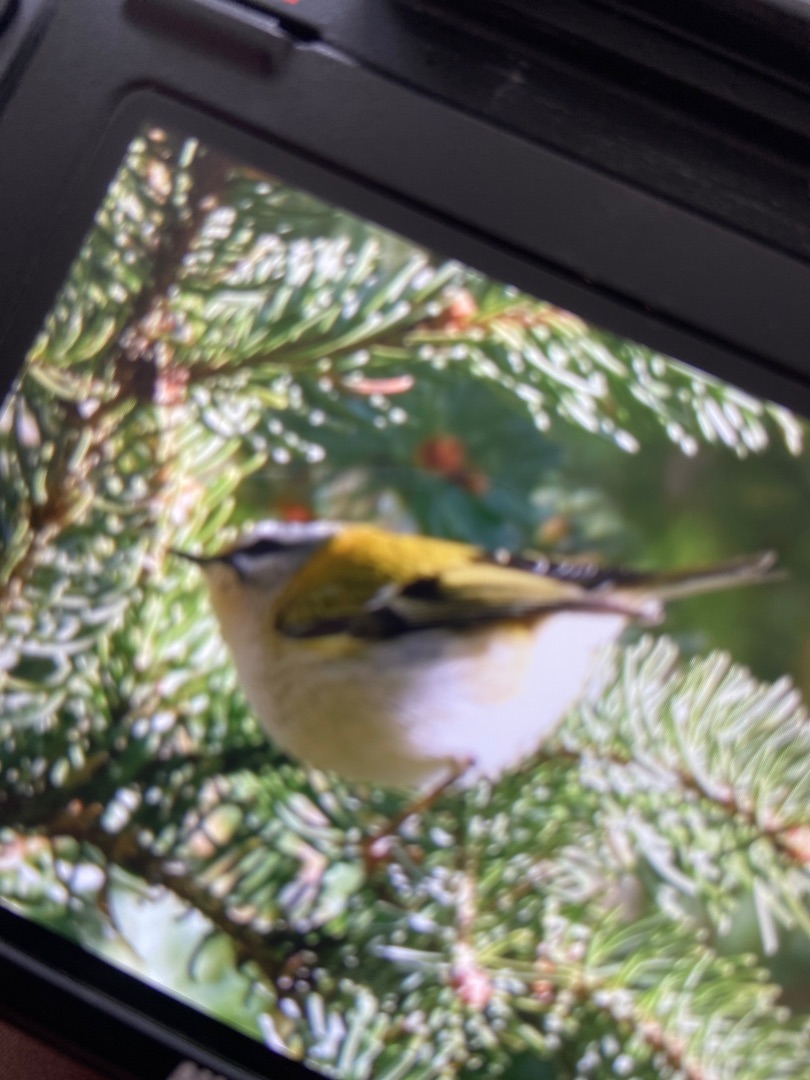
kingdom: Animalia
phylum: Chordata
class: Aves
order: Passeriformes
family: Regulidae
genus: Regulus
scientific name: Regulus ignicapilla
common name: Rødtoppet fuglekonge
